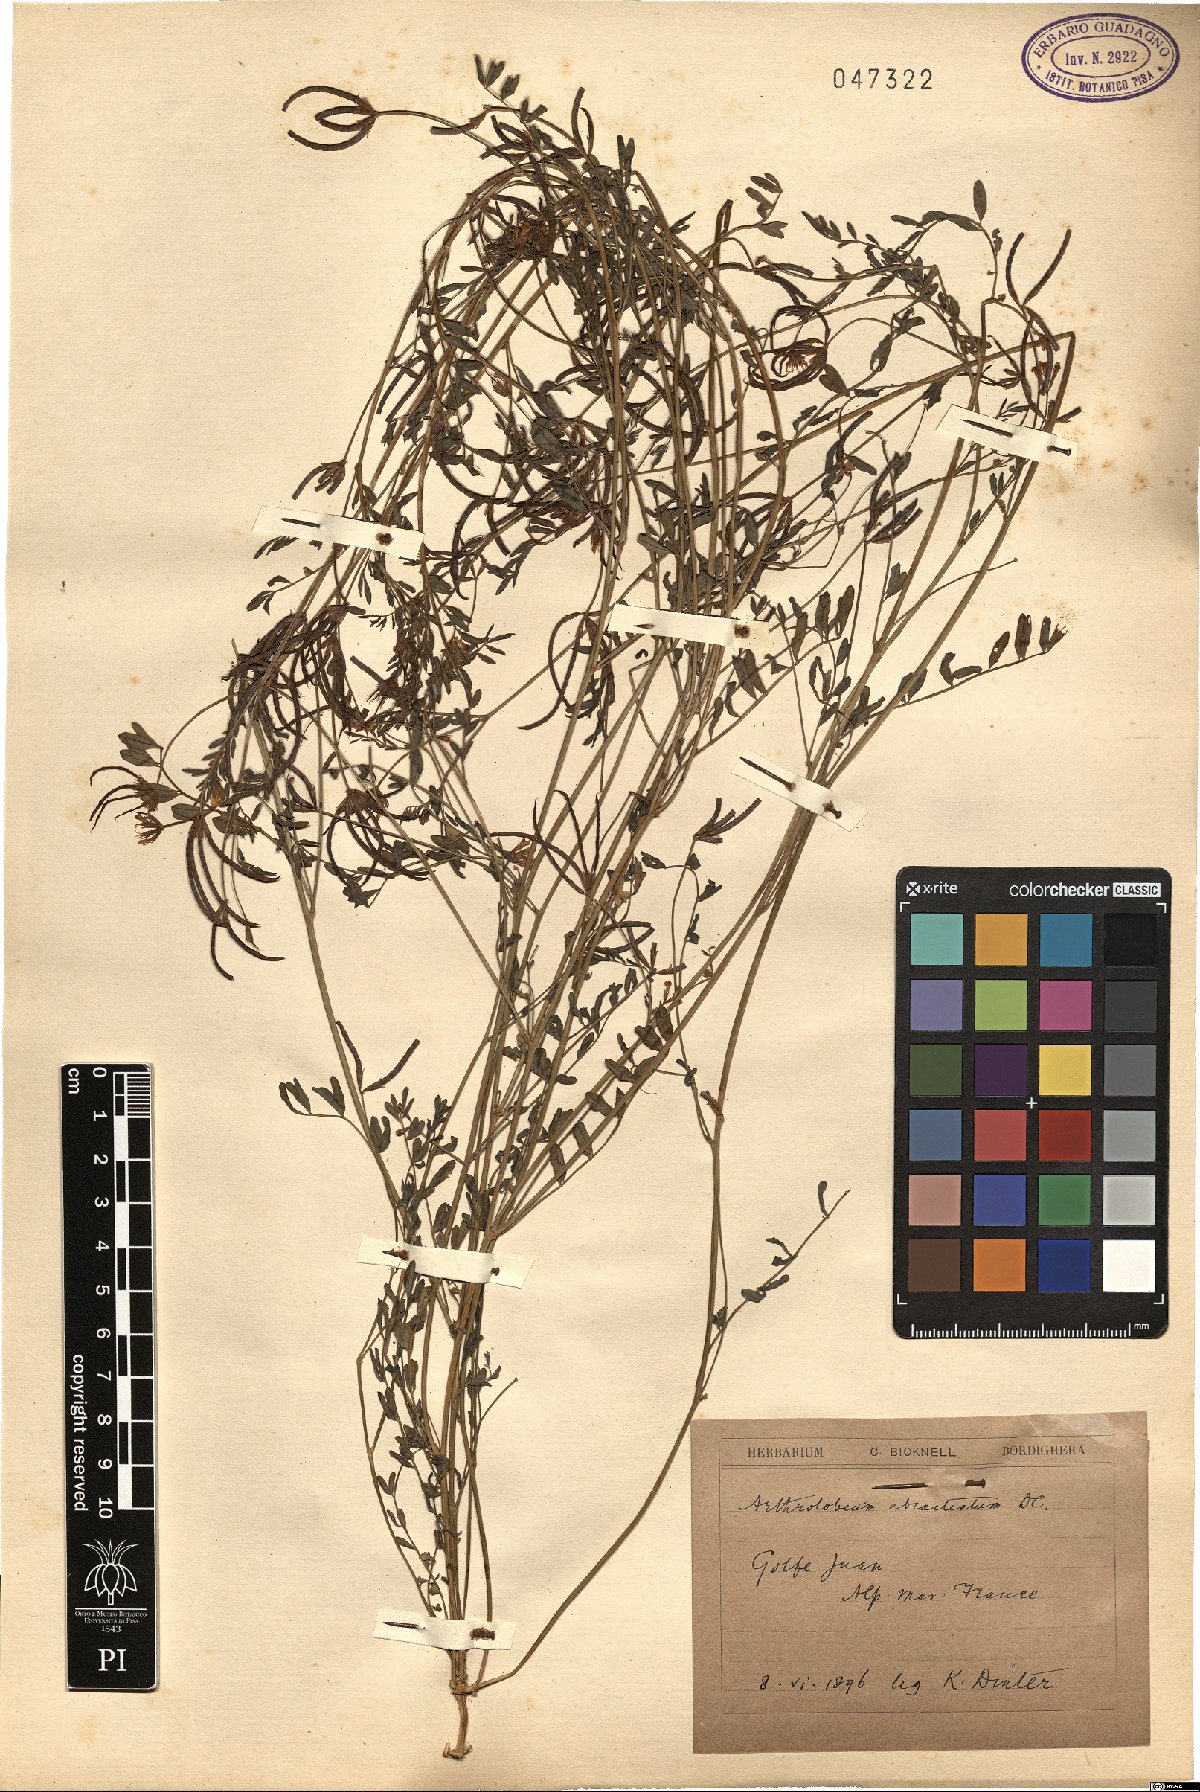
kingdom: Plantae
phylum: Tracheophyta
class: Magnoliopsida
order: Fabales
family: Fabaceae
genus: Ornithopus
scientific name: Ornithopus pinnatus
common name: Orange bird's-foot
